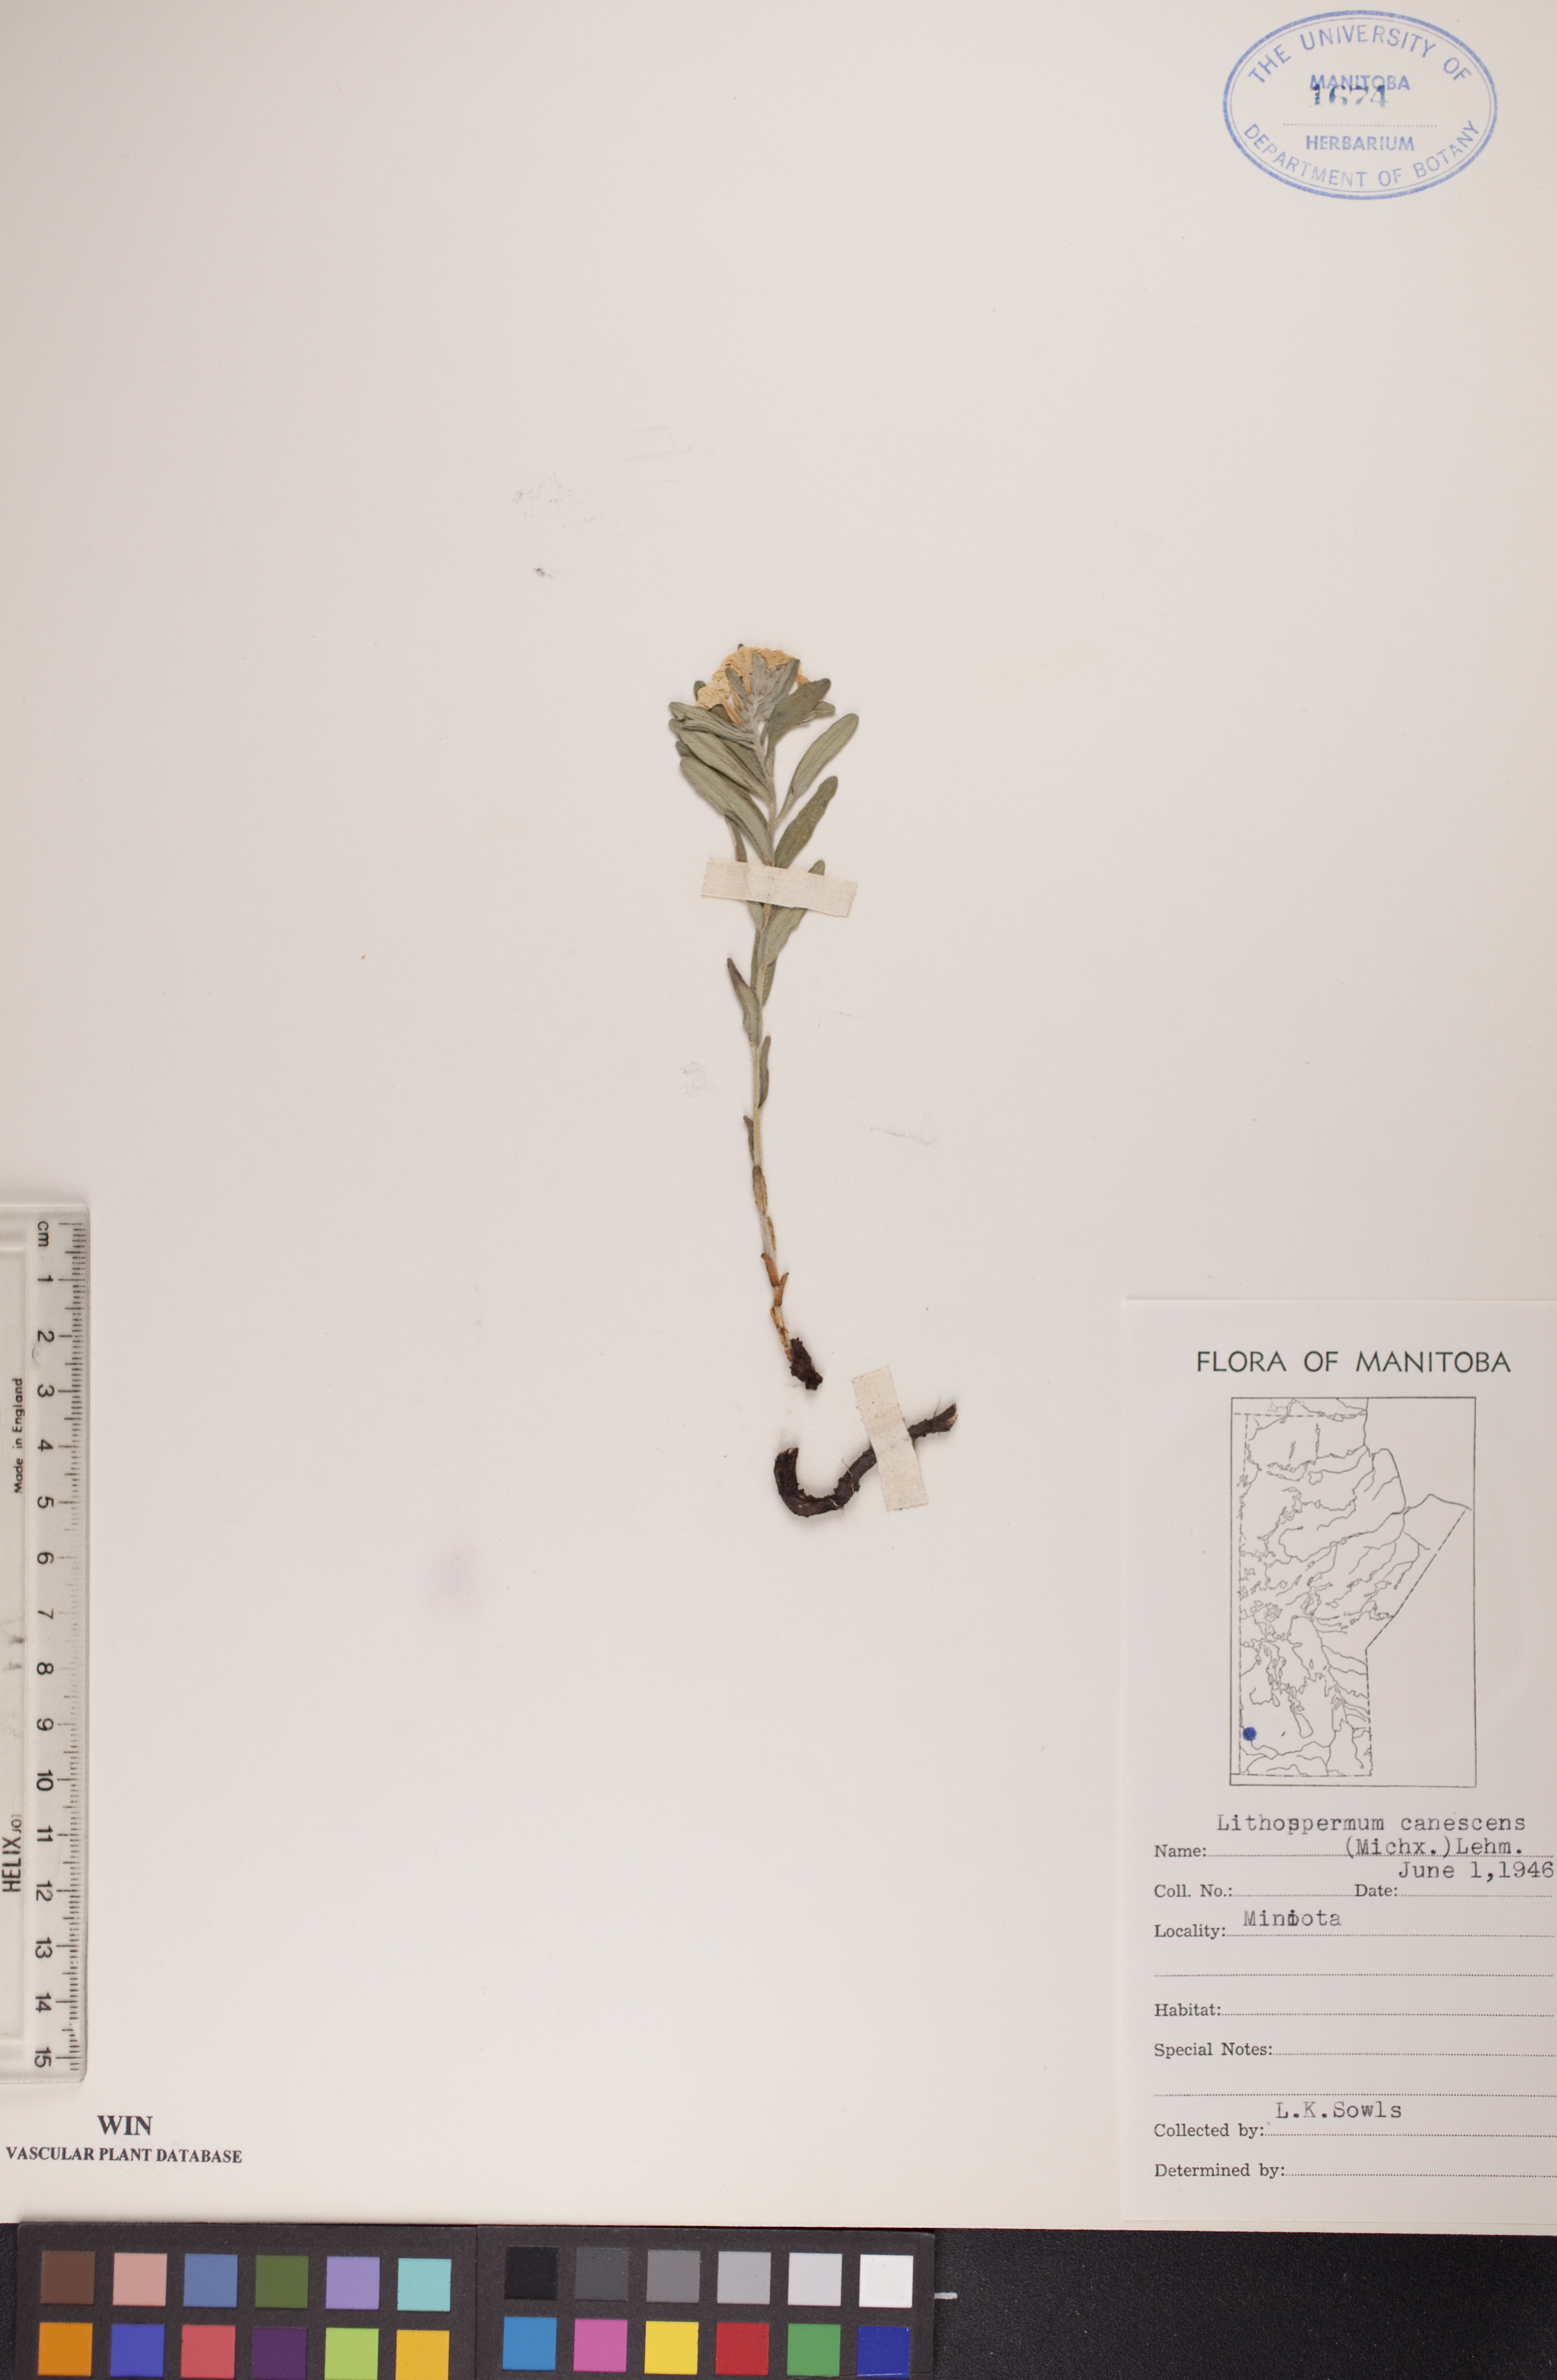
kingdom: Plantae
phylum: Tracheophyta
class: Magnoliopsida
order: Boraginales
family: Boraginaceae
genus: Lithospermum
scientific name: Lithospermum canescens
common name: Hoary puccoon
